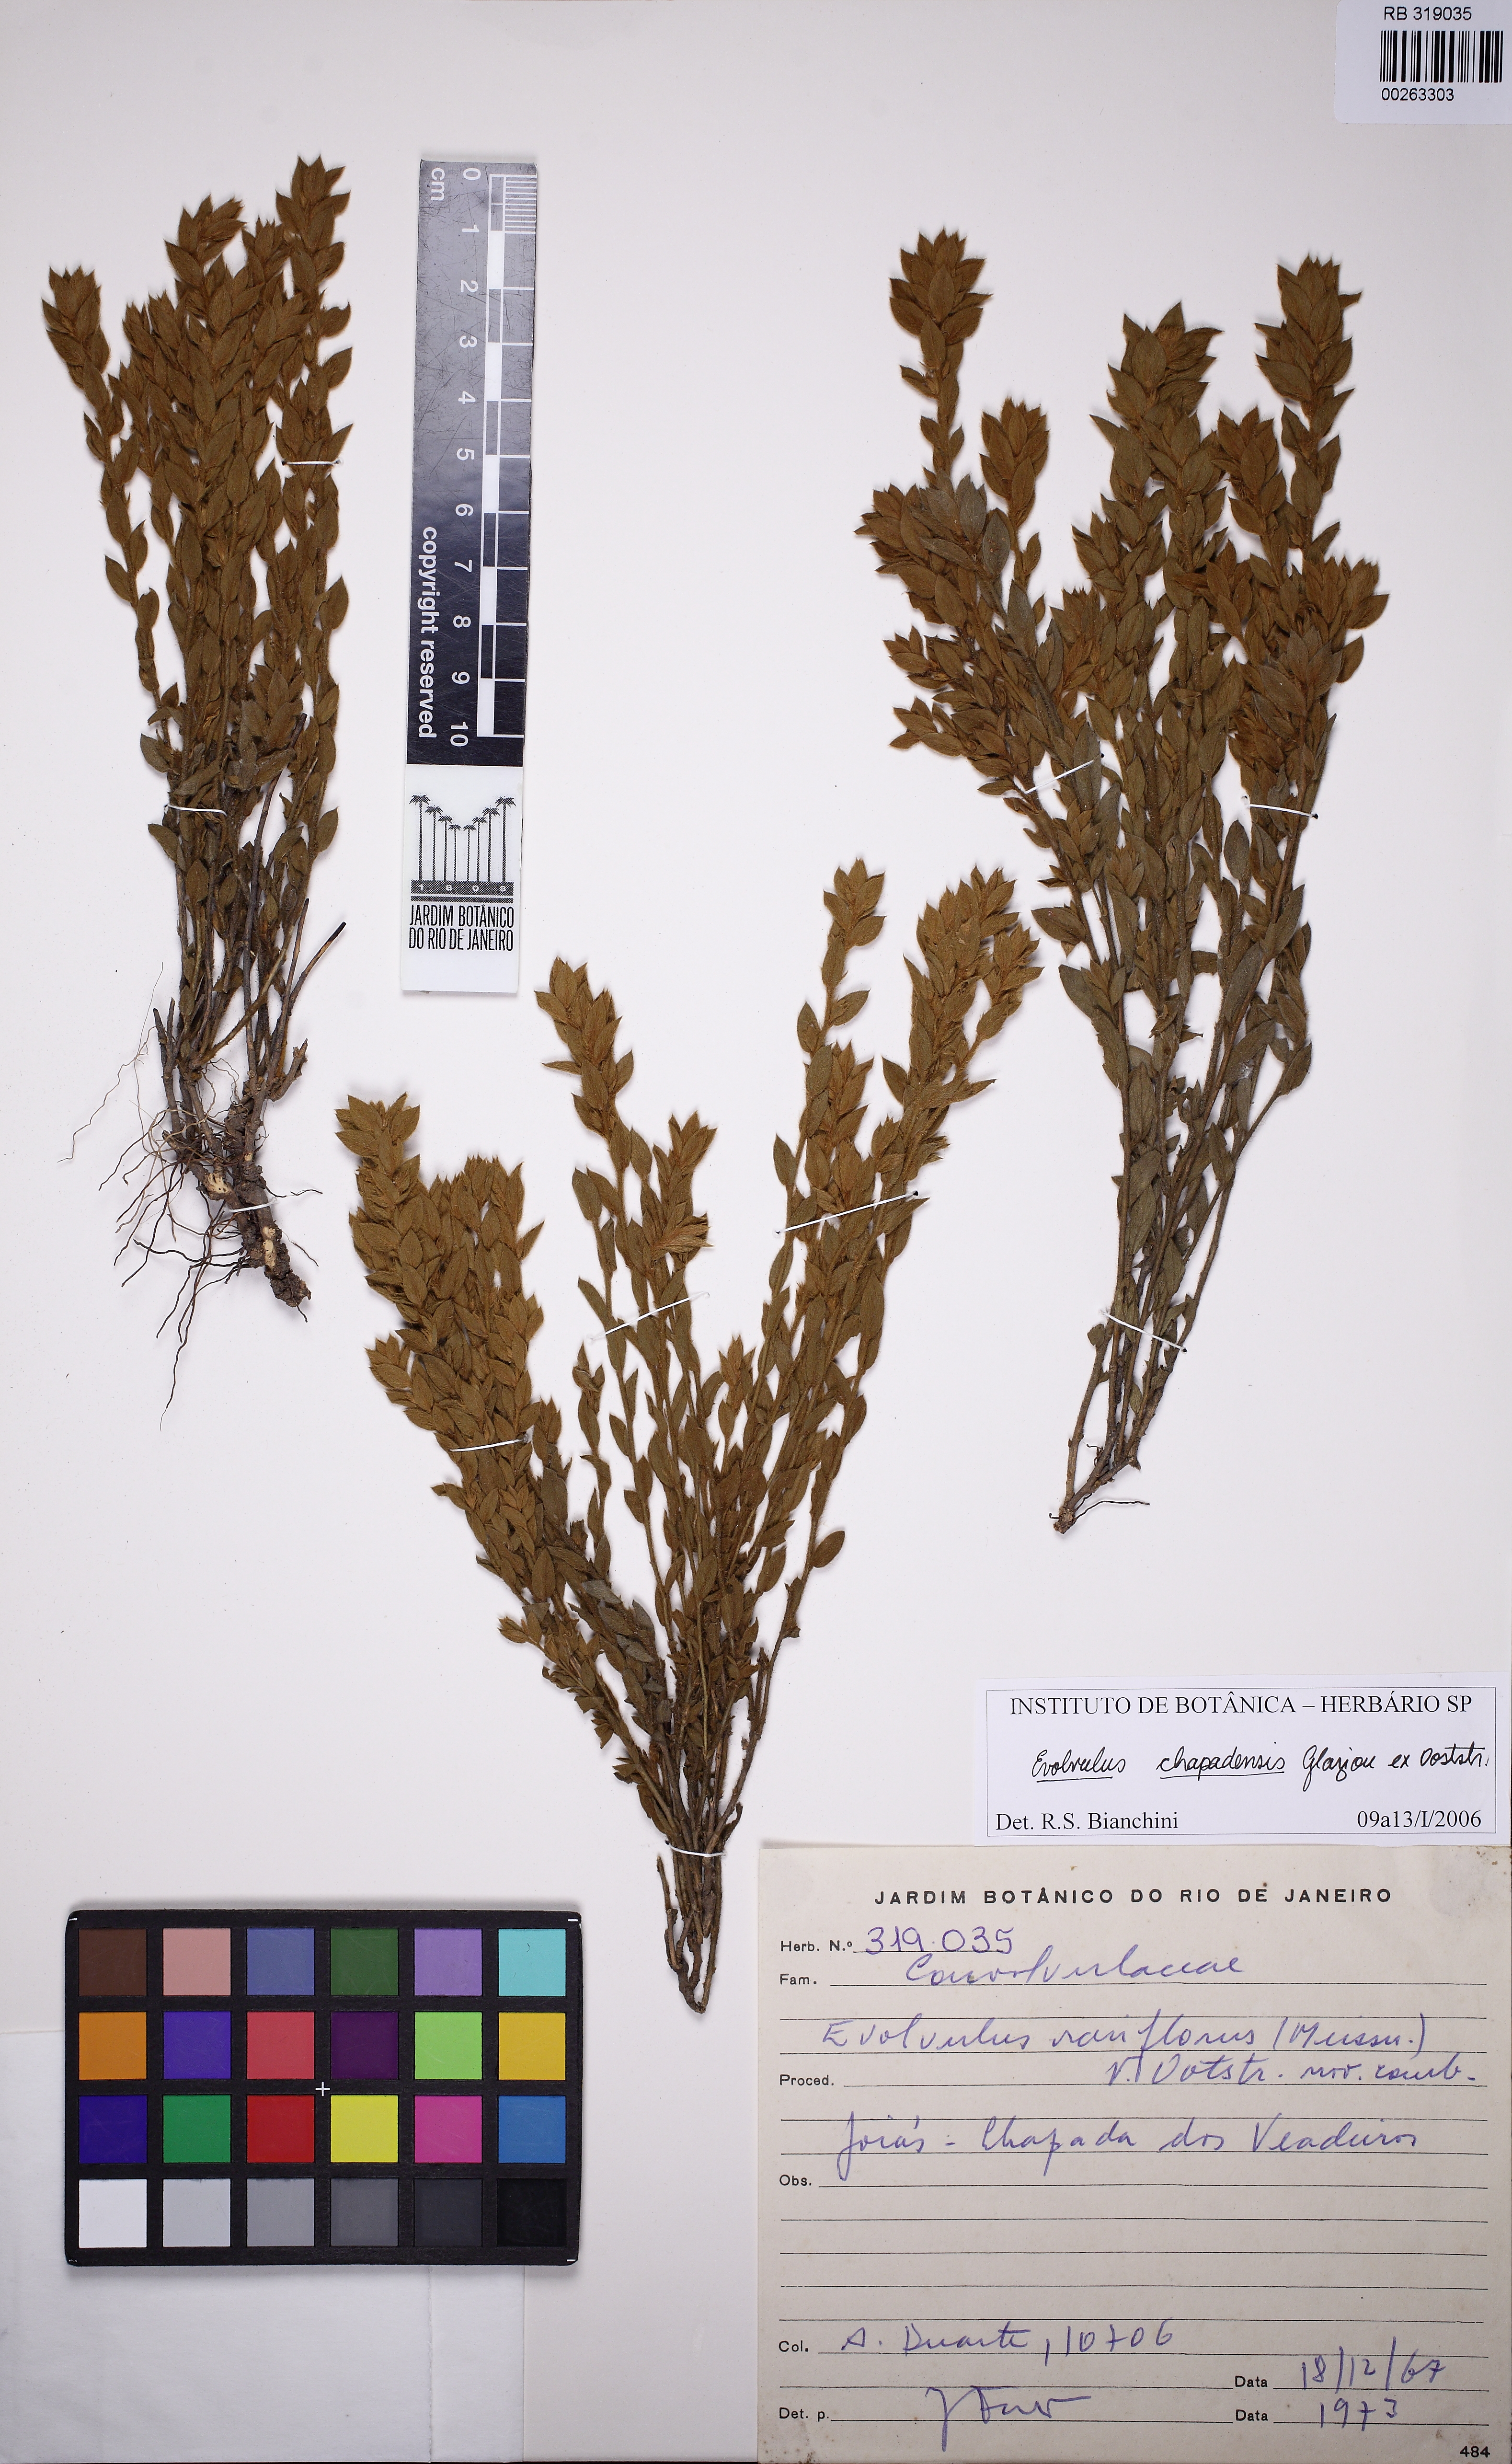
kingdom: Plantae
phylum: Tracheophyta
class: Magnoliopsida
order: Solanales
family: Convolvulaceae
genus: Evolvulus
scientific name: Evolvulus chapadensis
